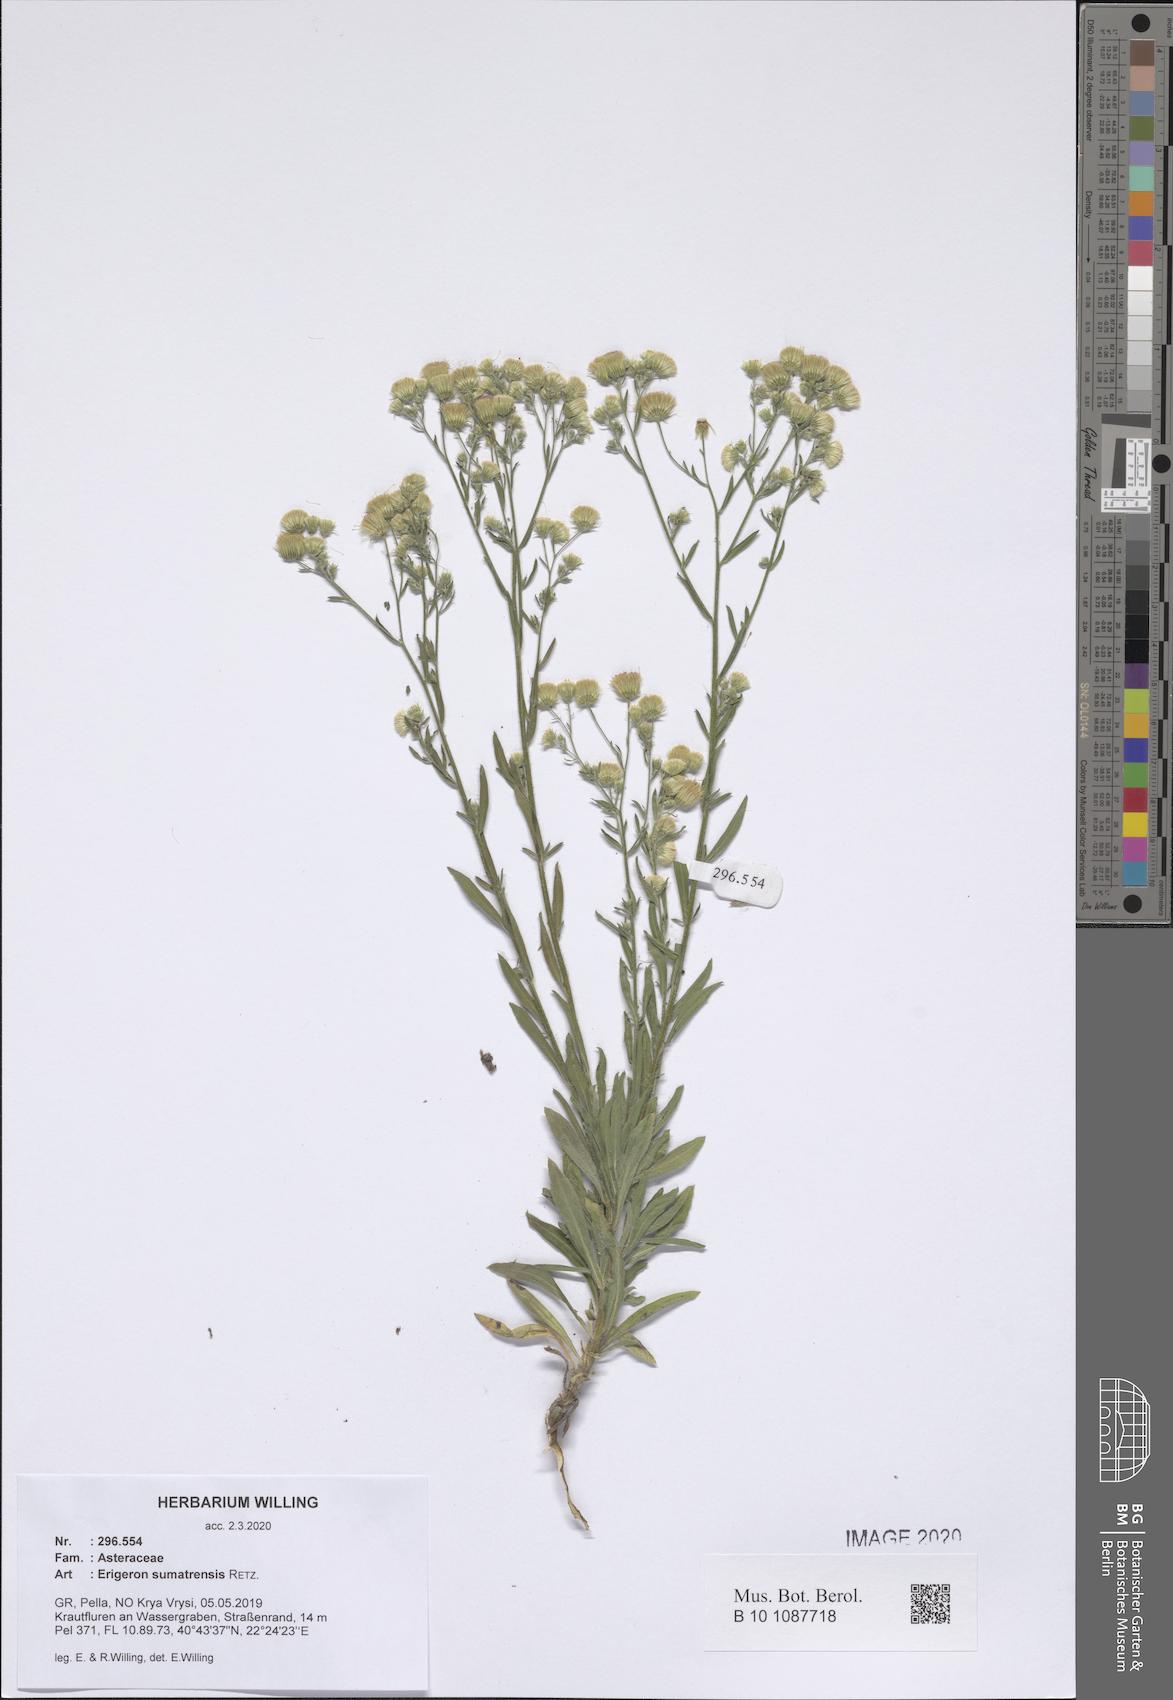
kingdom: Plantae
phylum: Tracheophyta
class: Magnoliopsida
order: Asterales
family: Asteraceae
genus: Erigeron
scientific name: Erigeron sumatrensis
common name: Daisy
